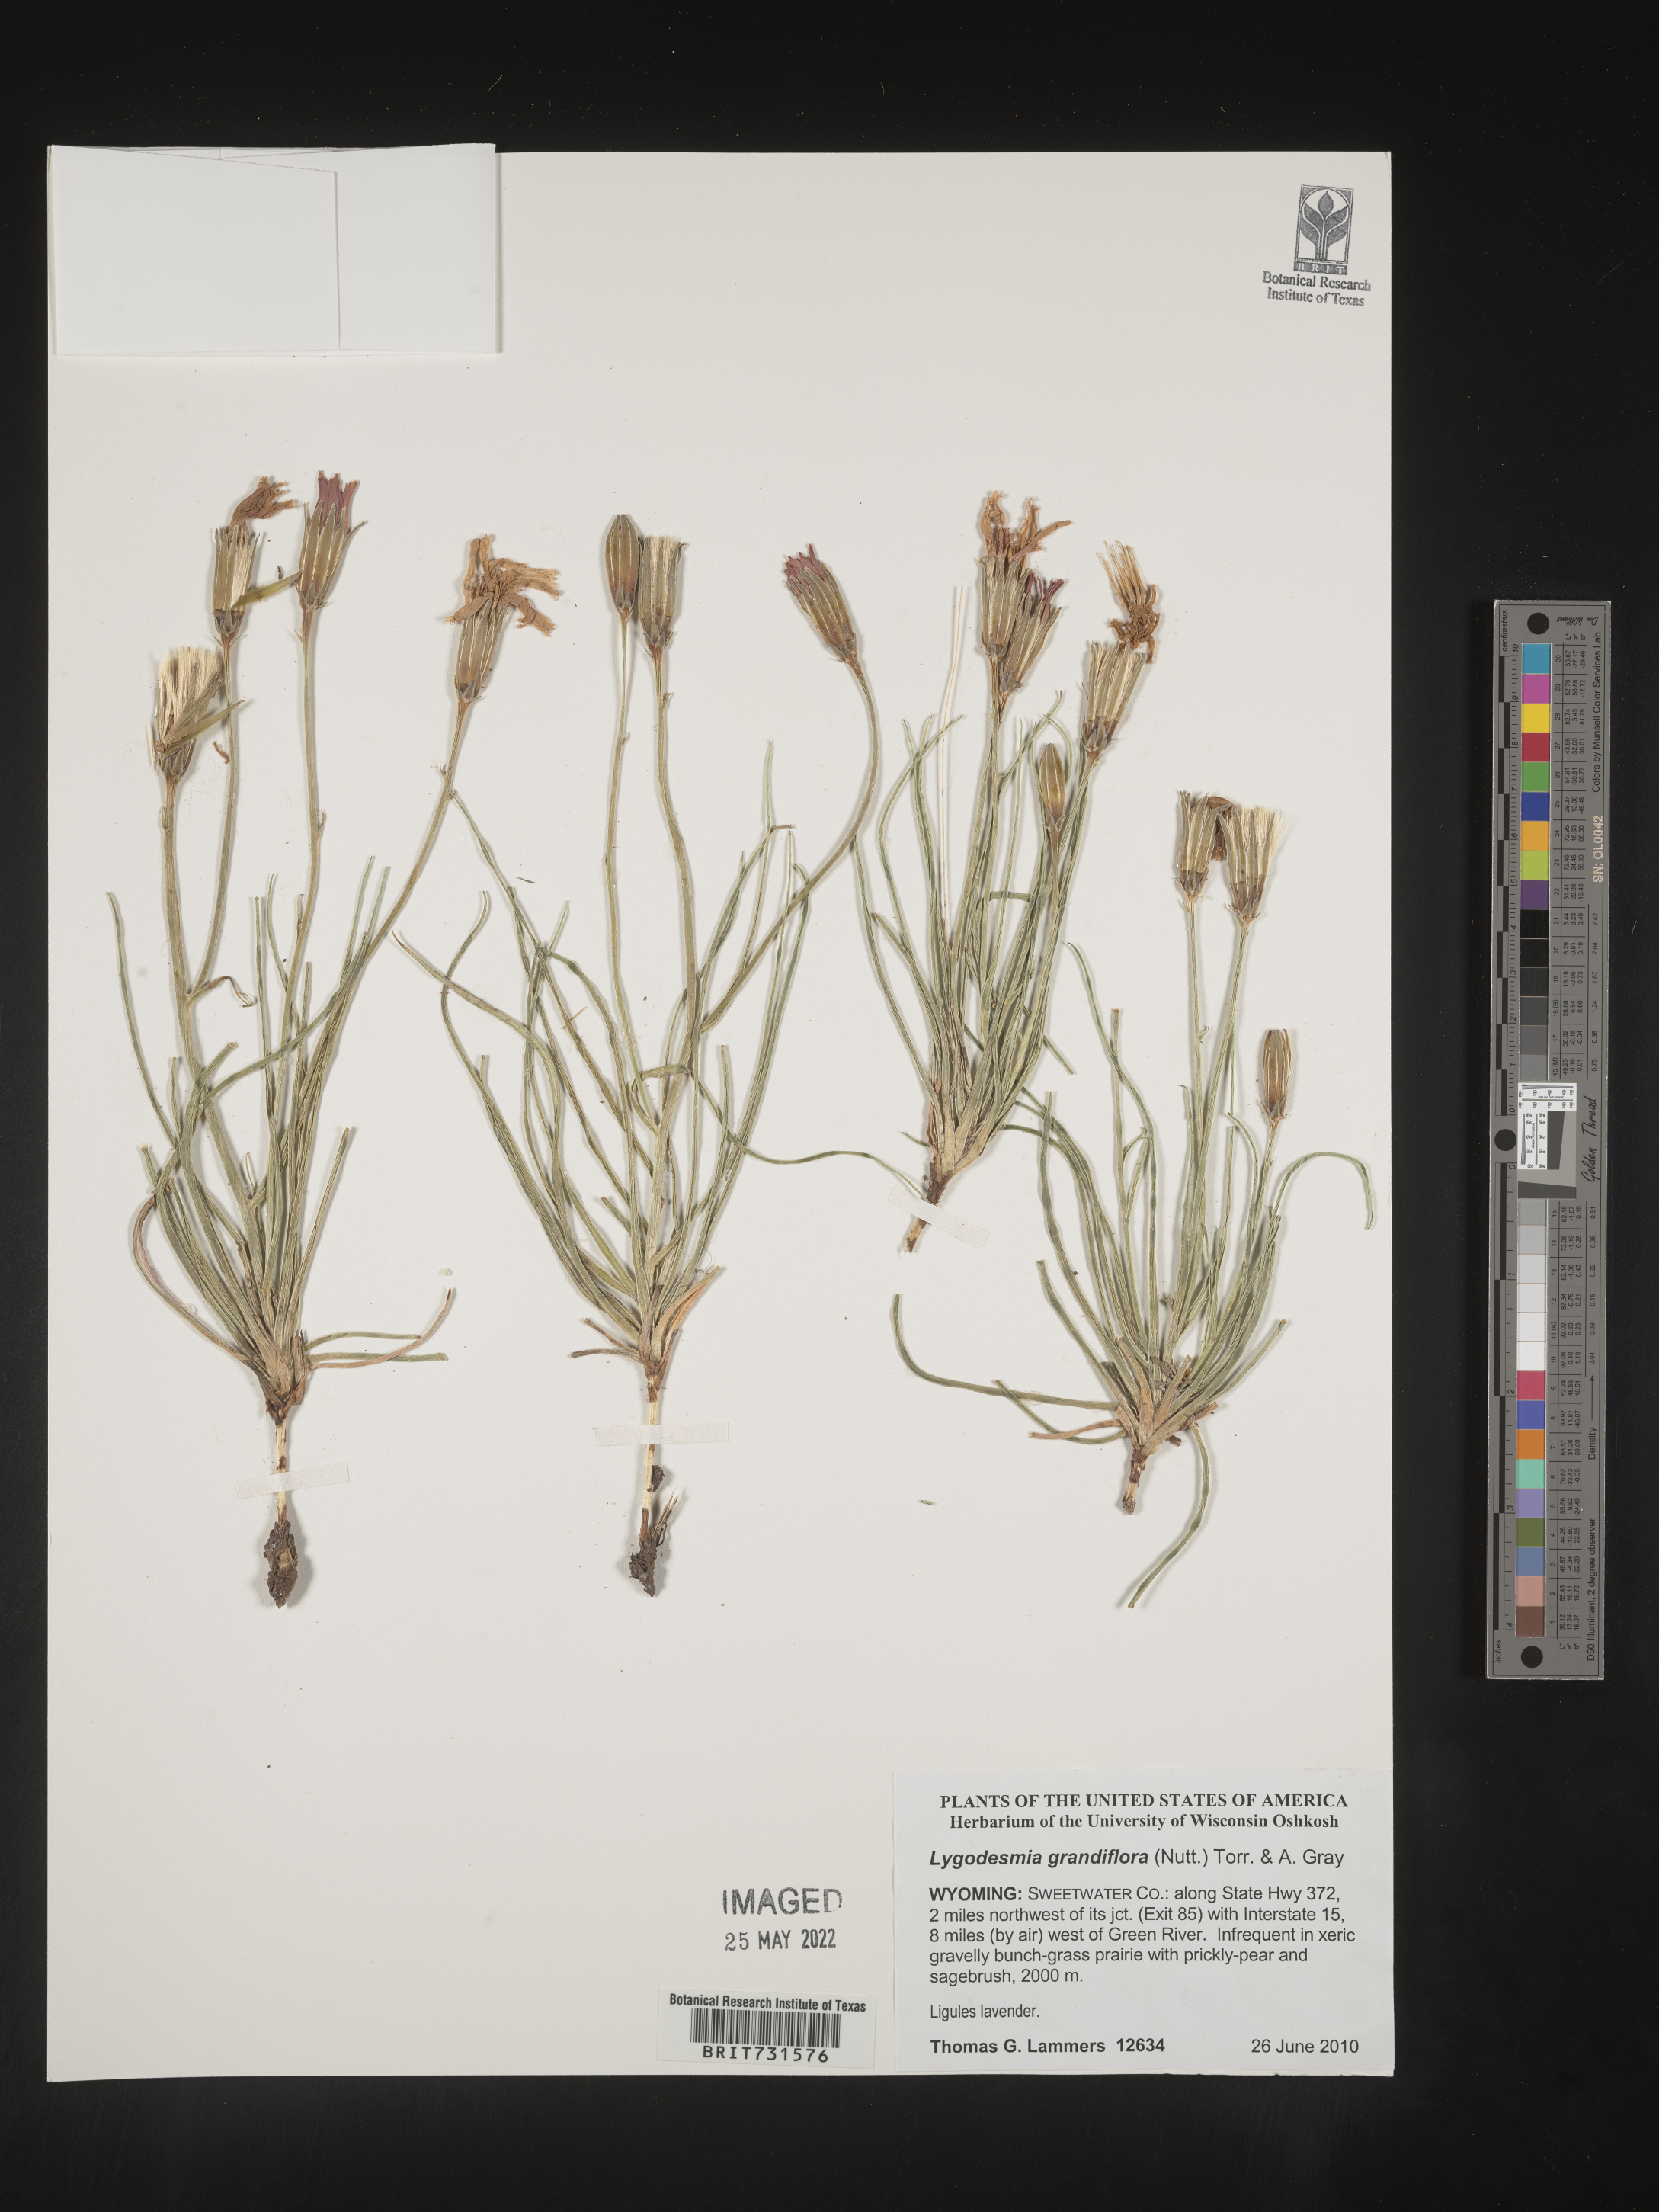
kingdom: Plantae
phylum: Tracheophyta
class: Magnoliopsida
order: Asterales
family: Asteraceae
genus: Lygodesmia
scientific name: Lygodesmia grandiflora
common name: Showy rush-pink
